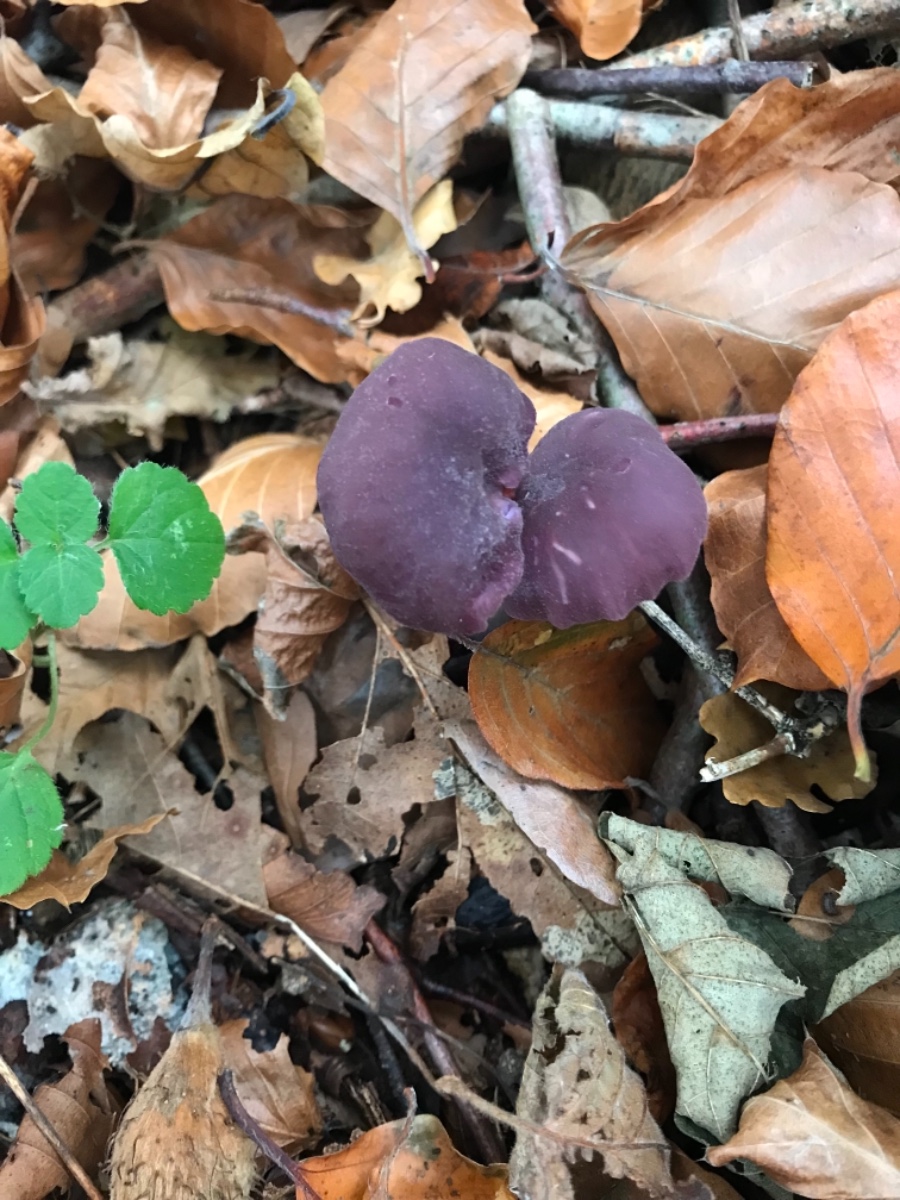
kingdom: Fungi
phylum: Basidiomycota
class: Agaricomycetes
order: Agaricales
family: Hydnangiaceae
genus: Laccaria
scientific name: Laccaria amethystina
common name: violet ametysthat
